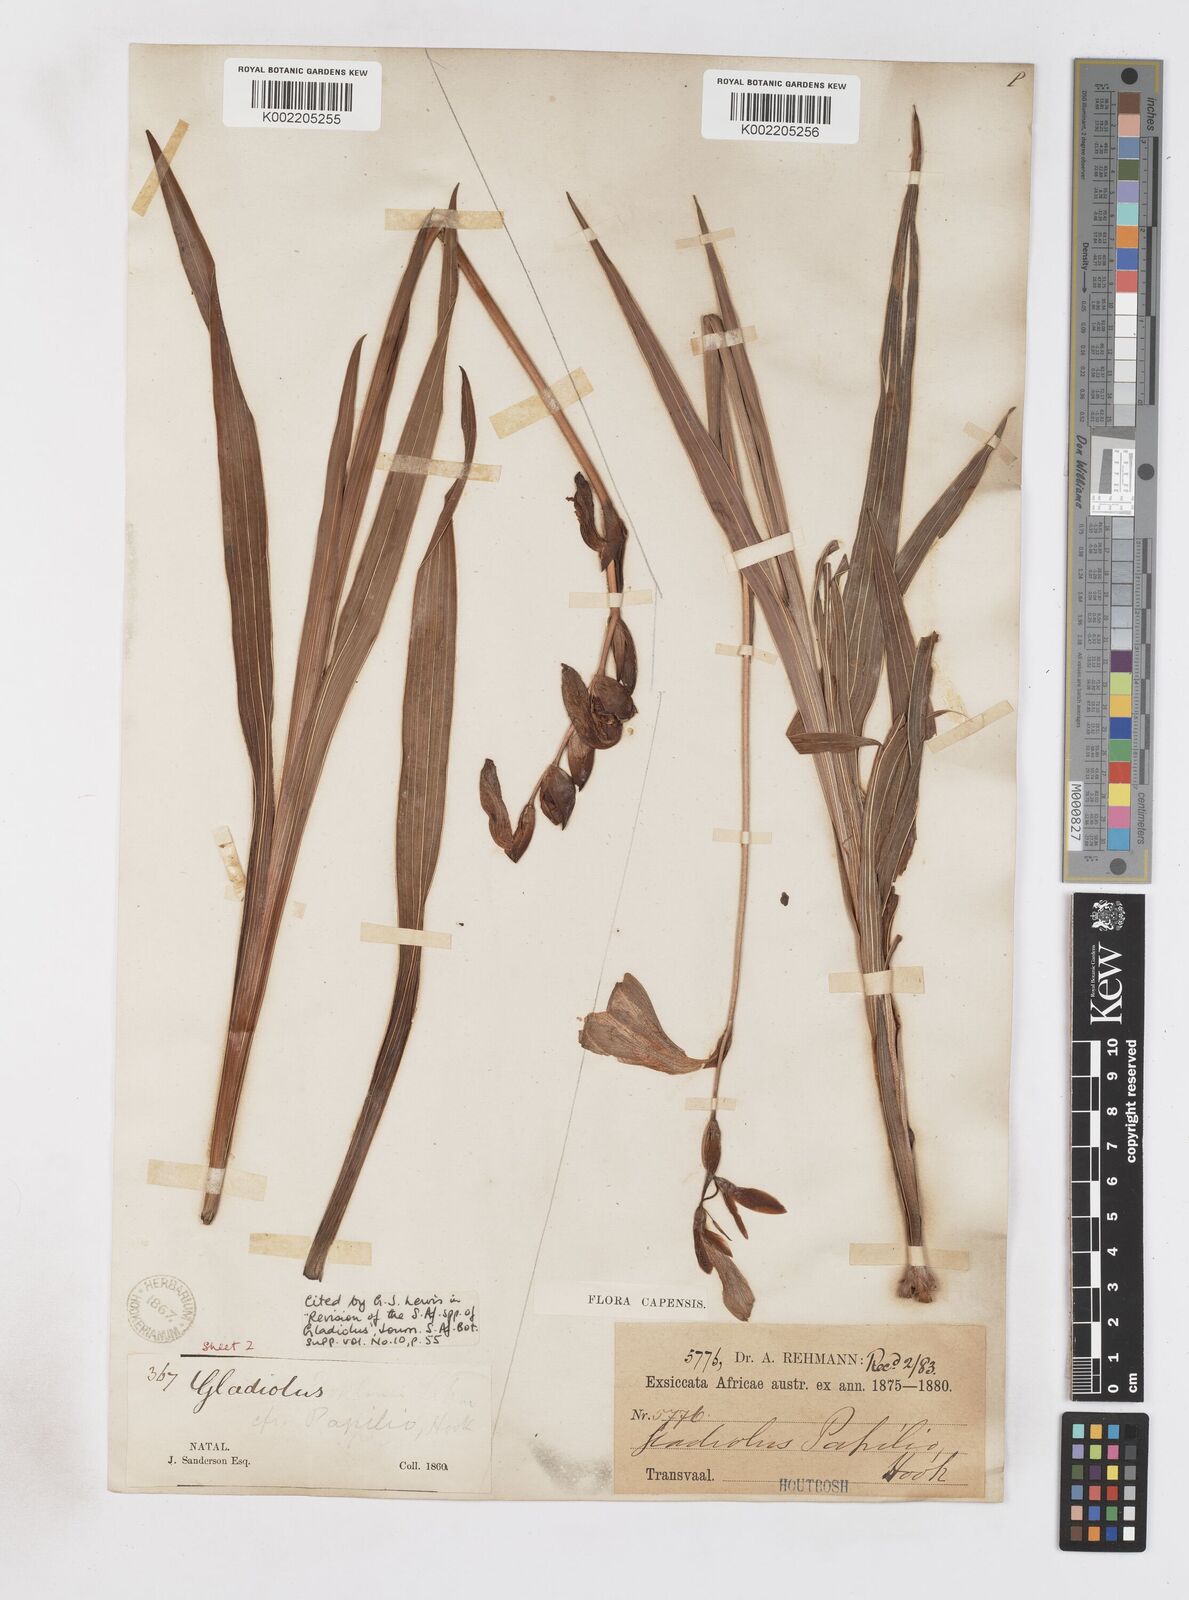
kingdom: Plantae
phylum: Tracheophyta
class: Liliopsida
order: Asparagales
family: Iridaceae
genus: Gladiolus
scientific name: Gladiolus papilio
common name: Goldblotch gladiolus
